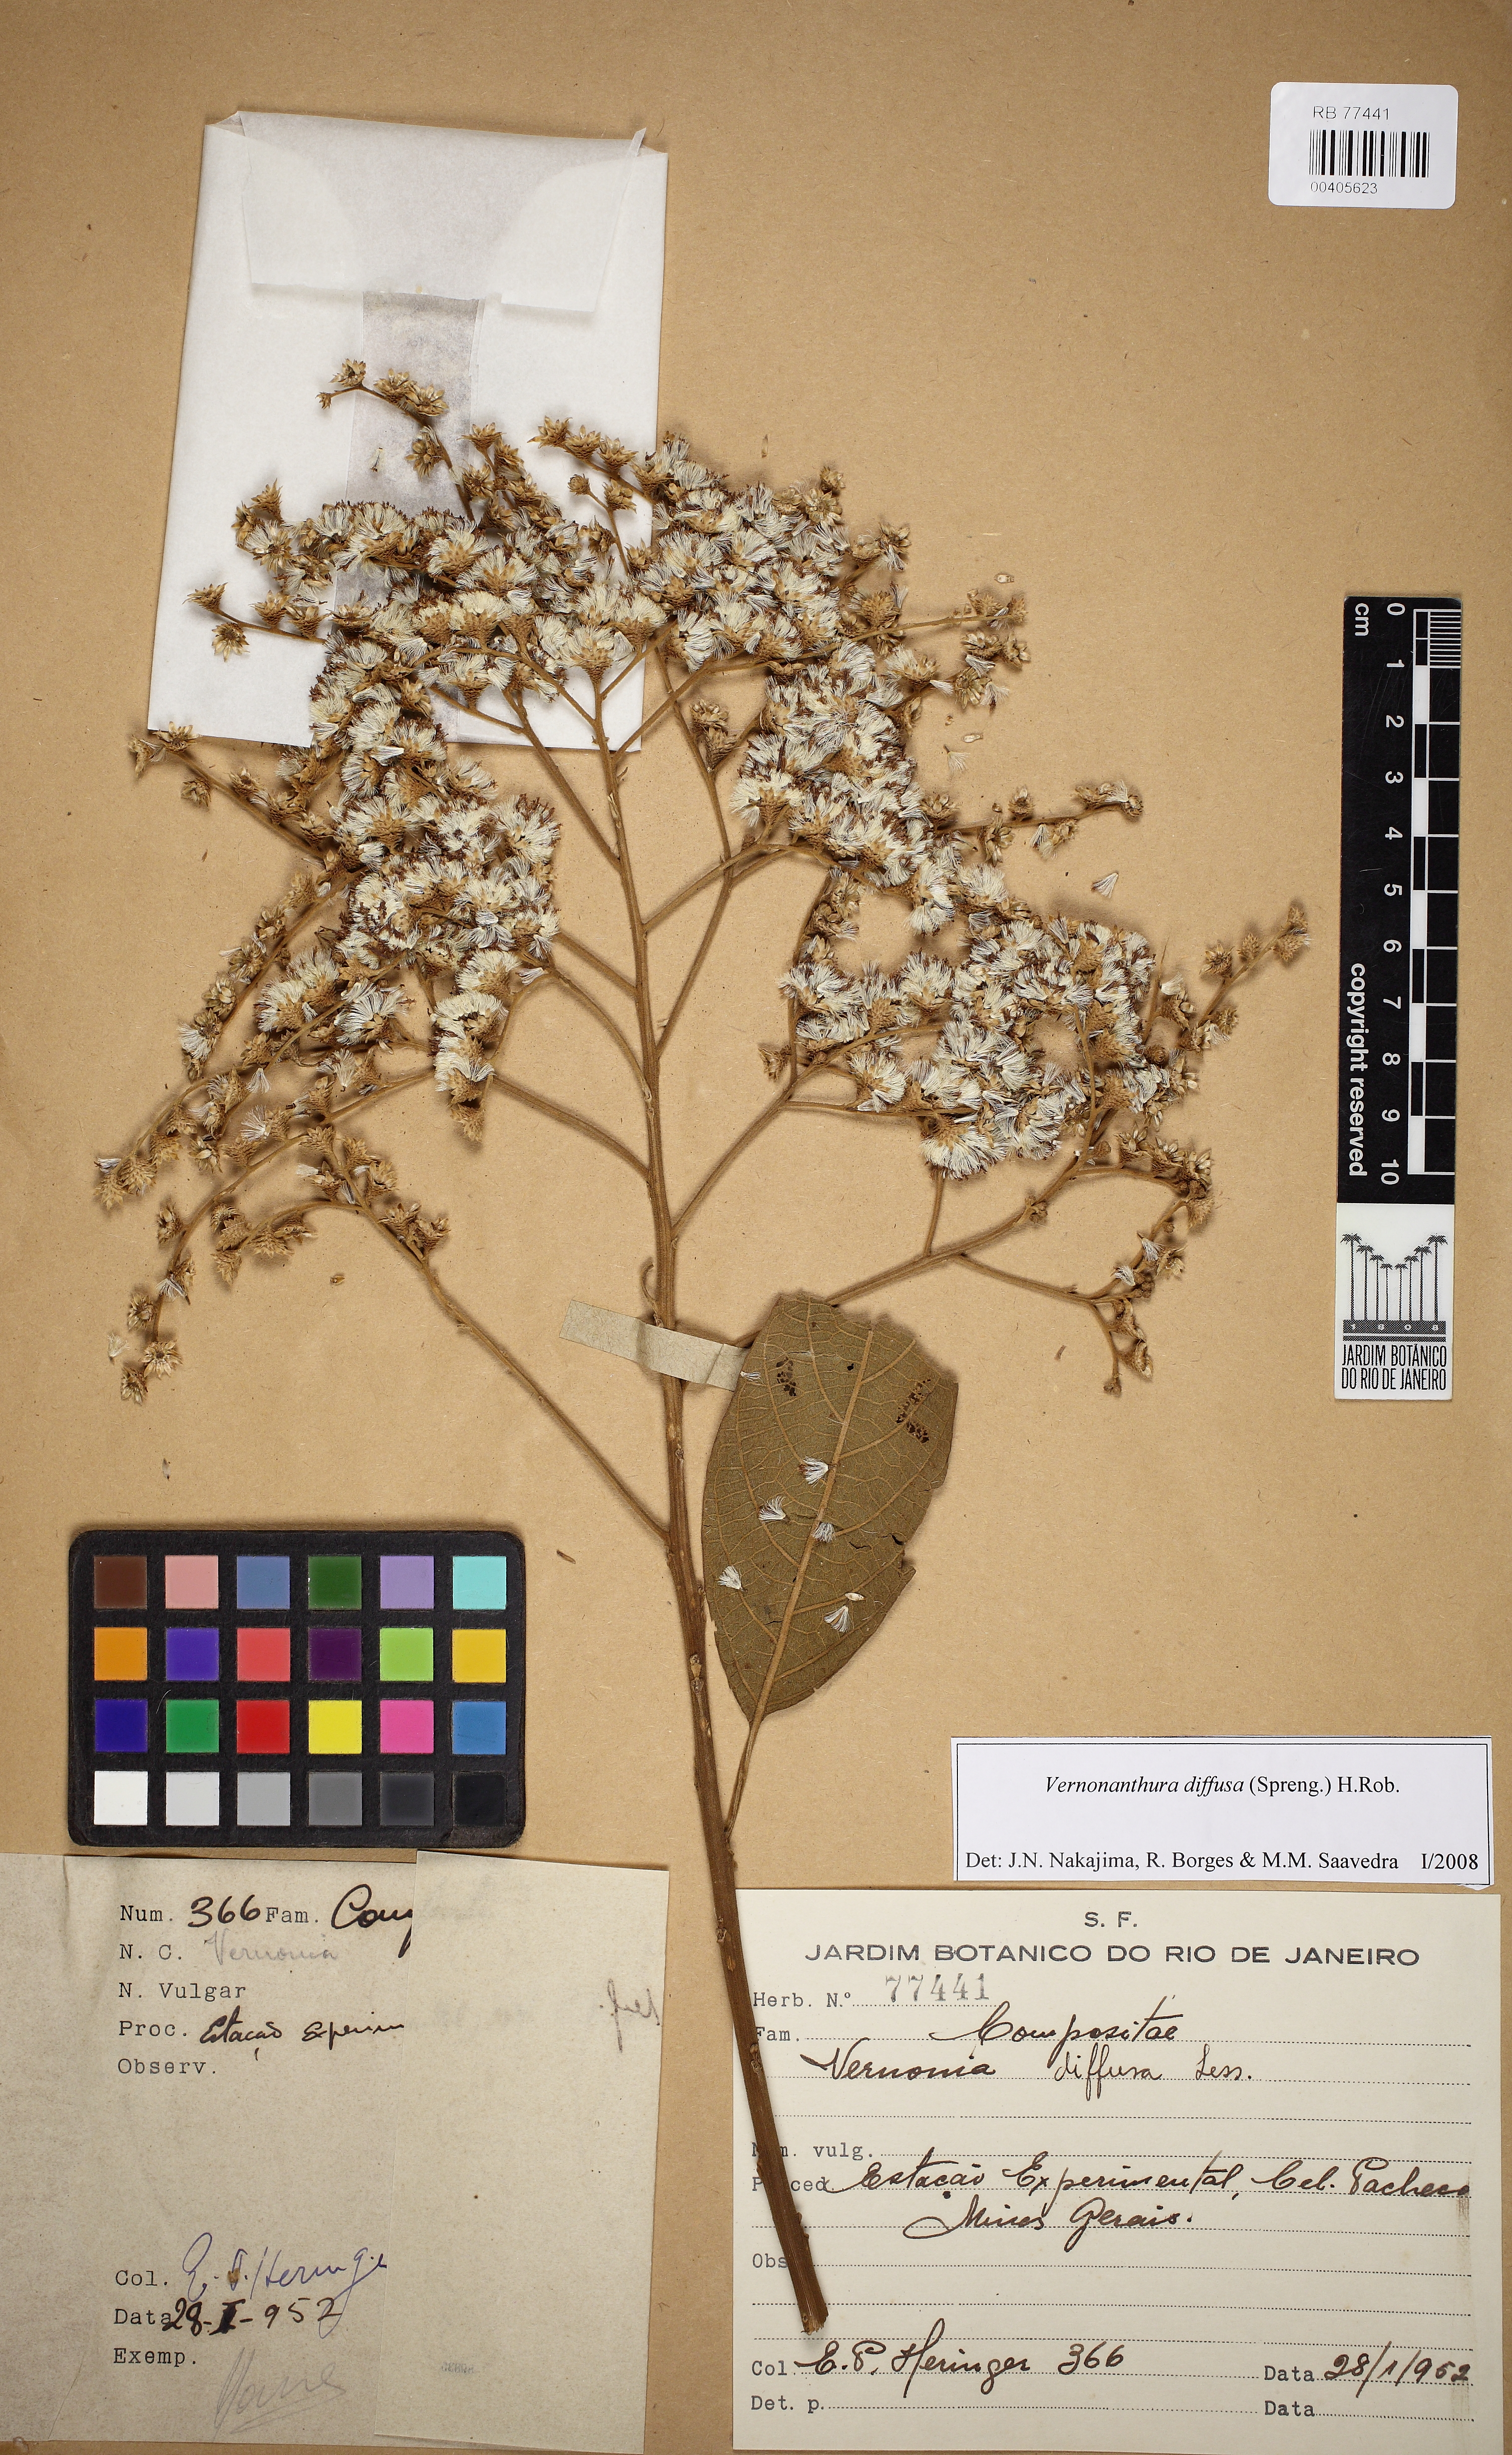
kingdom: Plantae
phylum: Tracheophyta
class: Magnoliopsida
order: Asterales
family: Asteraceae
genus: Vernonanthura
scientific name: Vernonanthura divaricata
